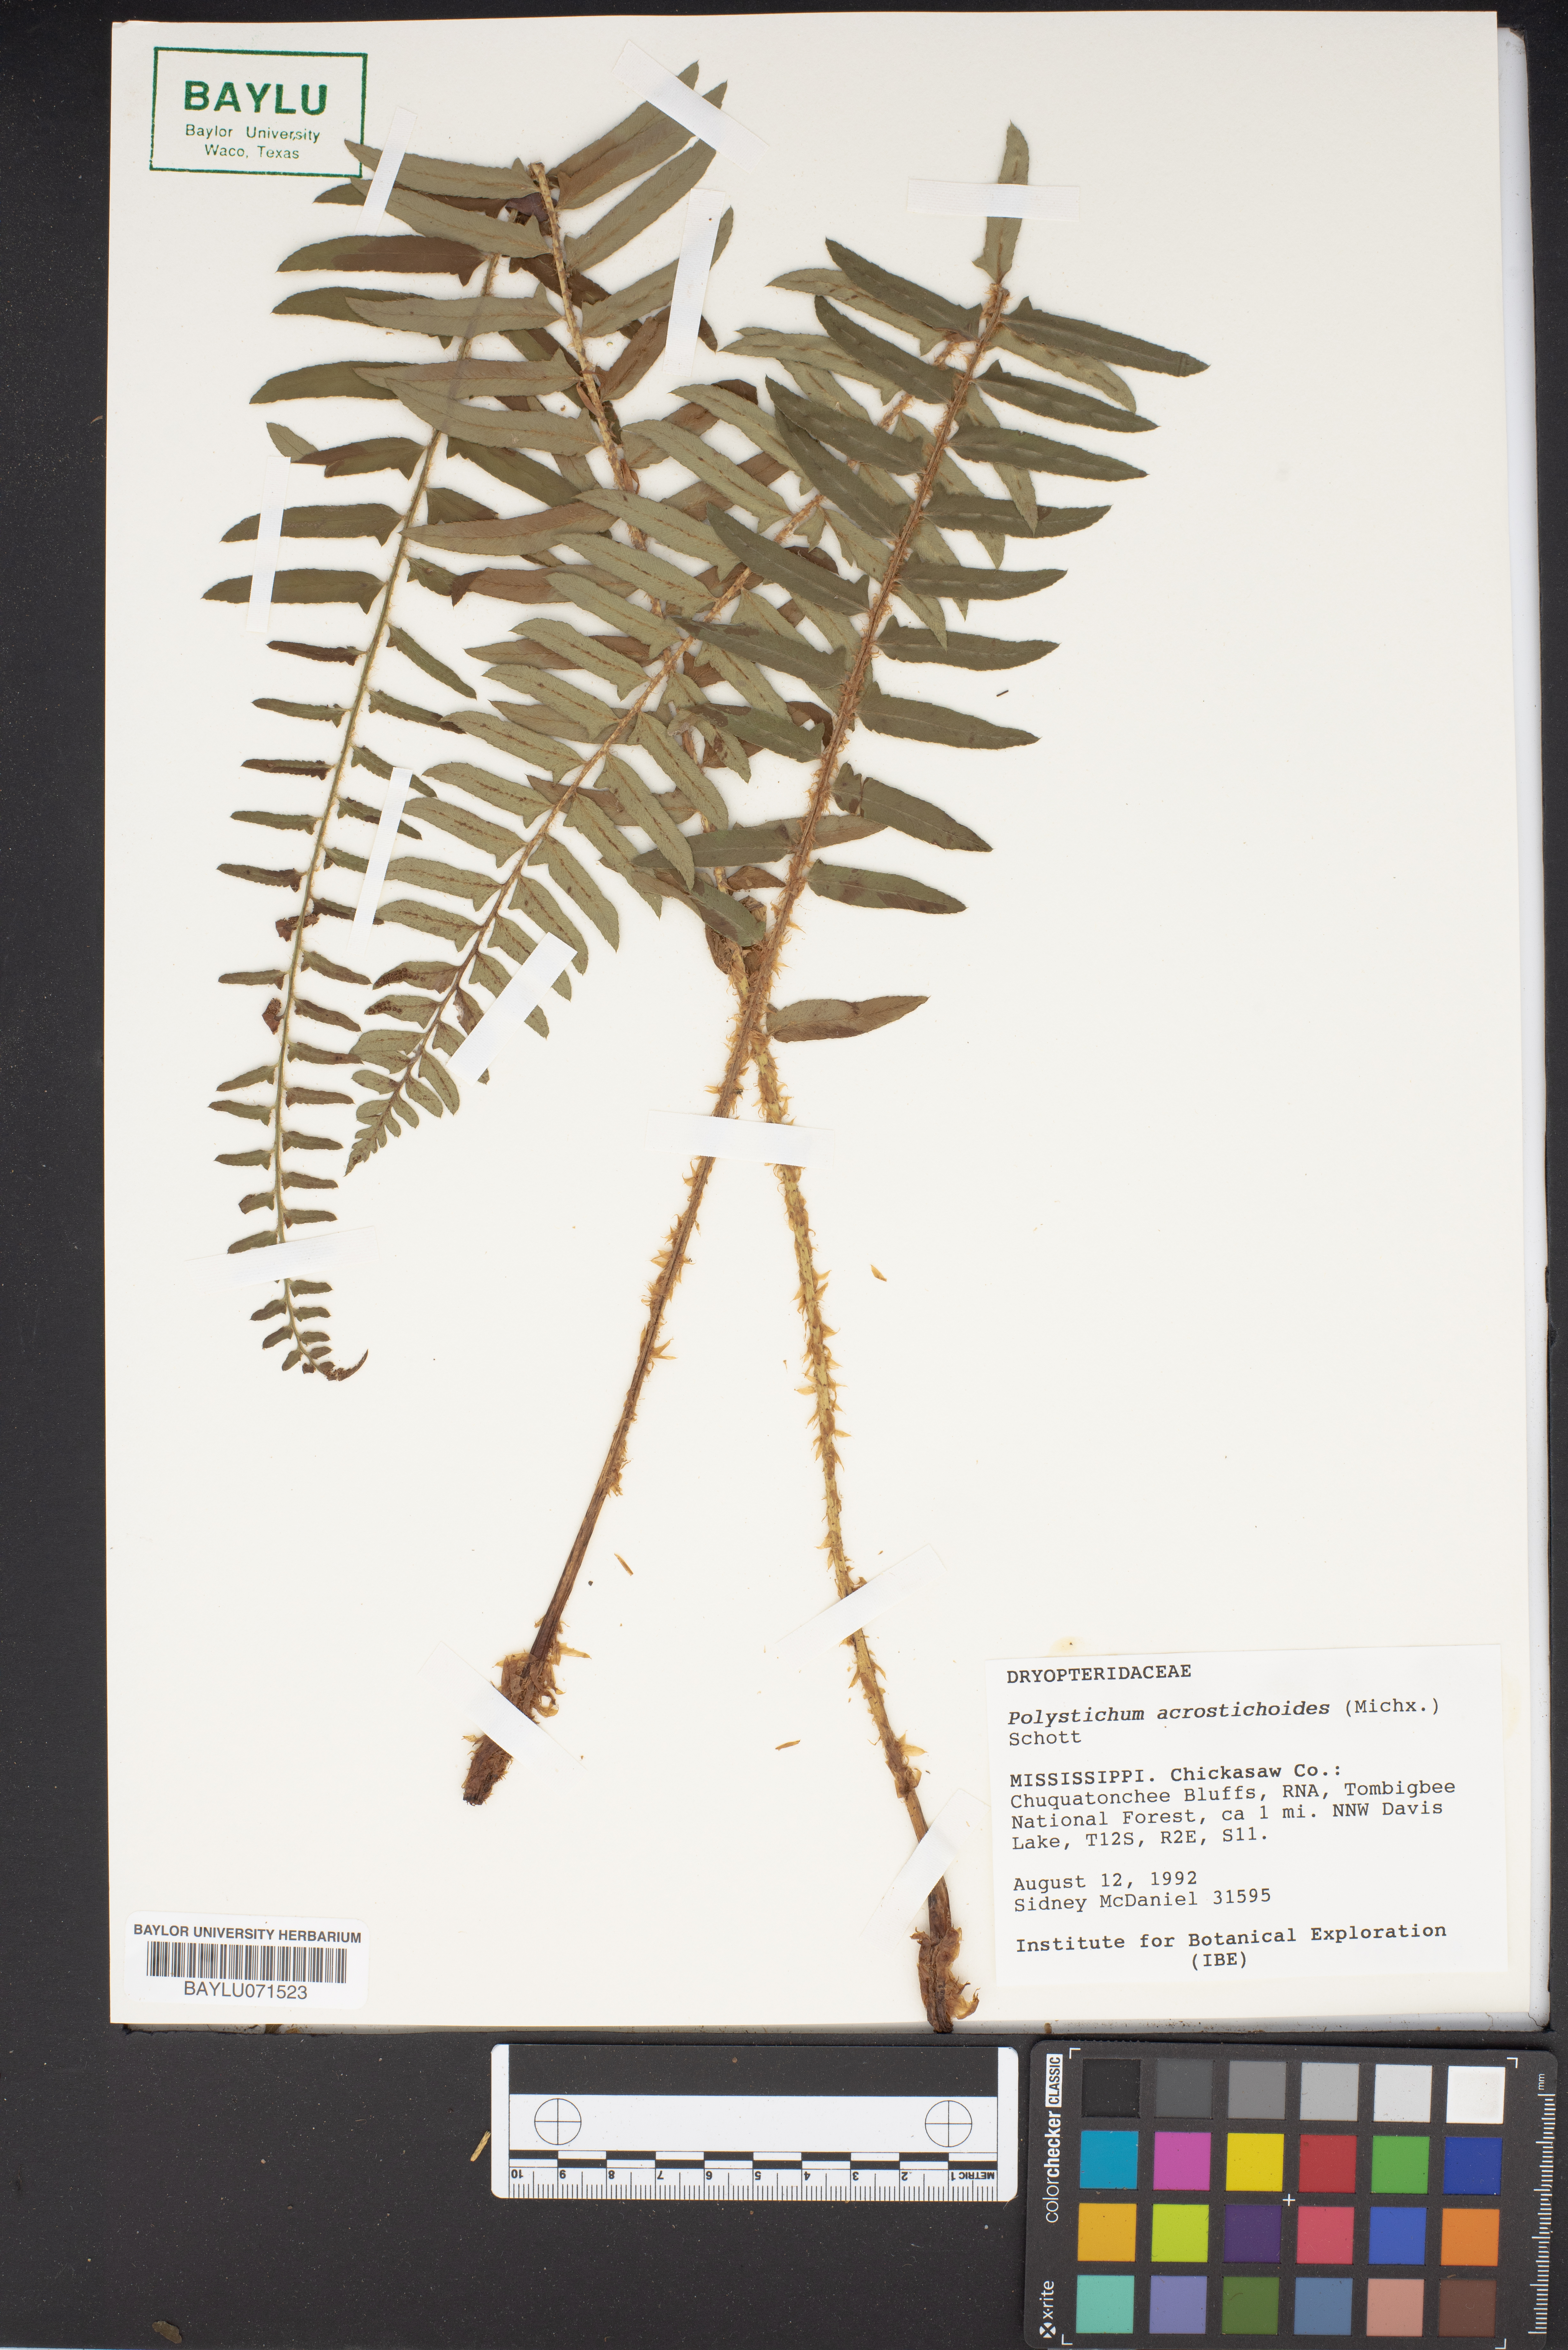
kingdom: Plantae
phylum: Tracheophyta
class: Polypodiopsida
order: Polypodiales
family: Dryopteridaceae
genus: Polystichum
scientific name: Polystichum acrostichoides
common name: Christmas fern
